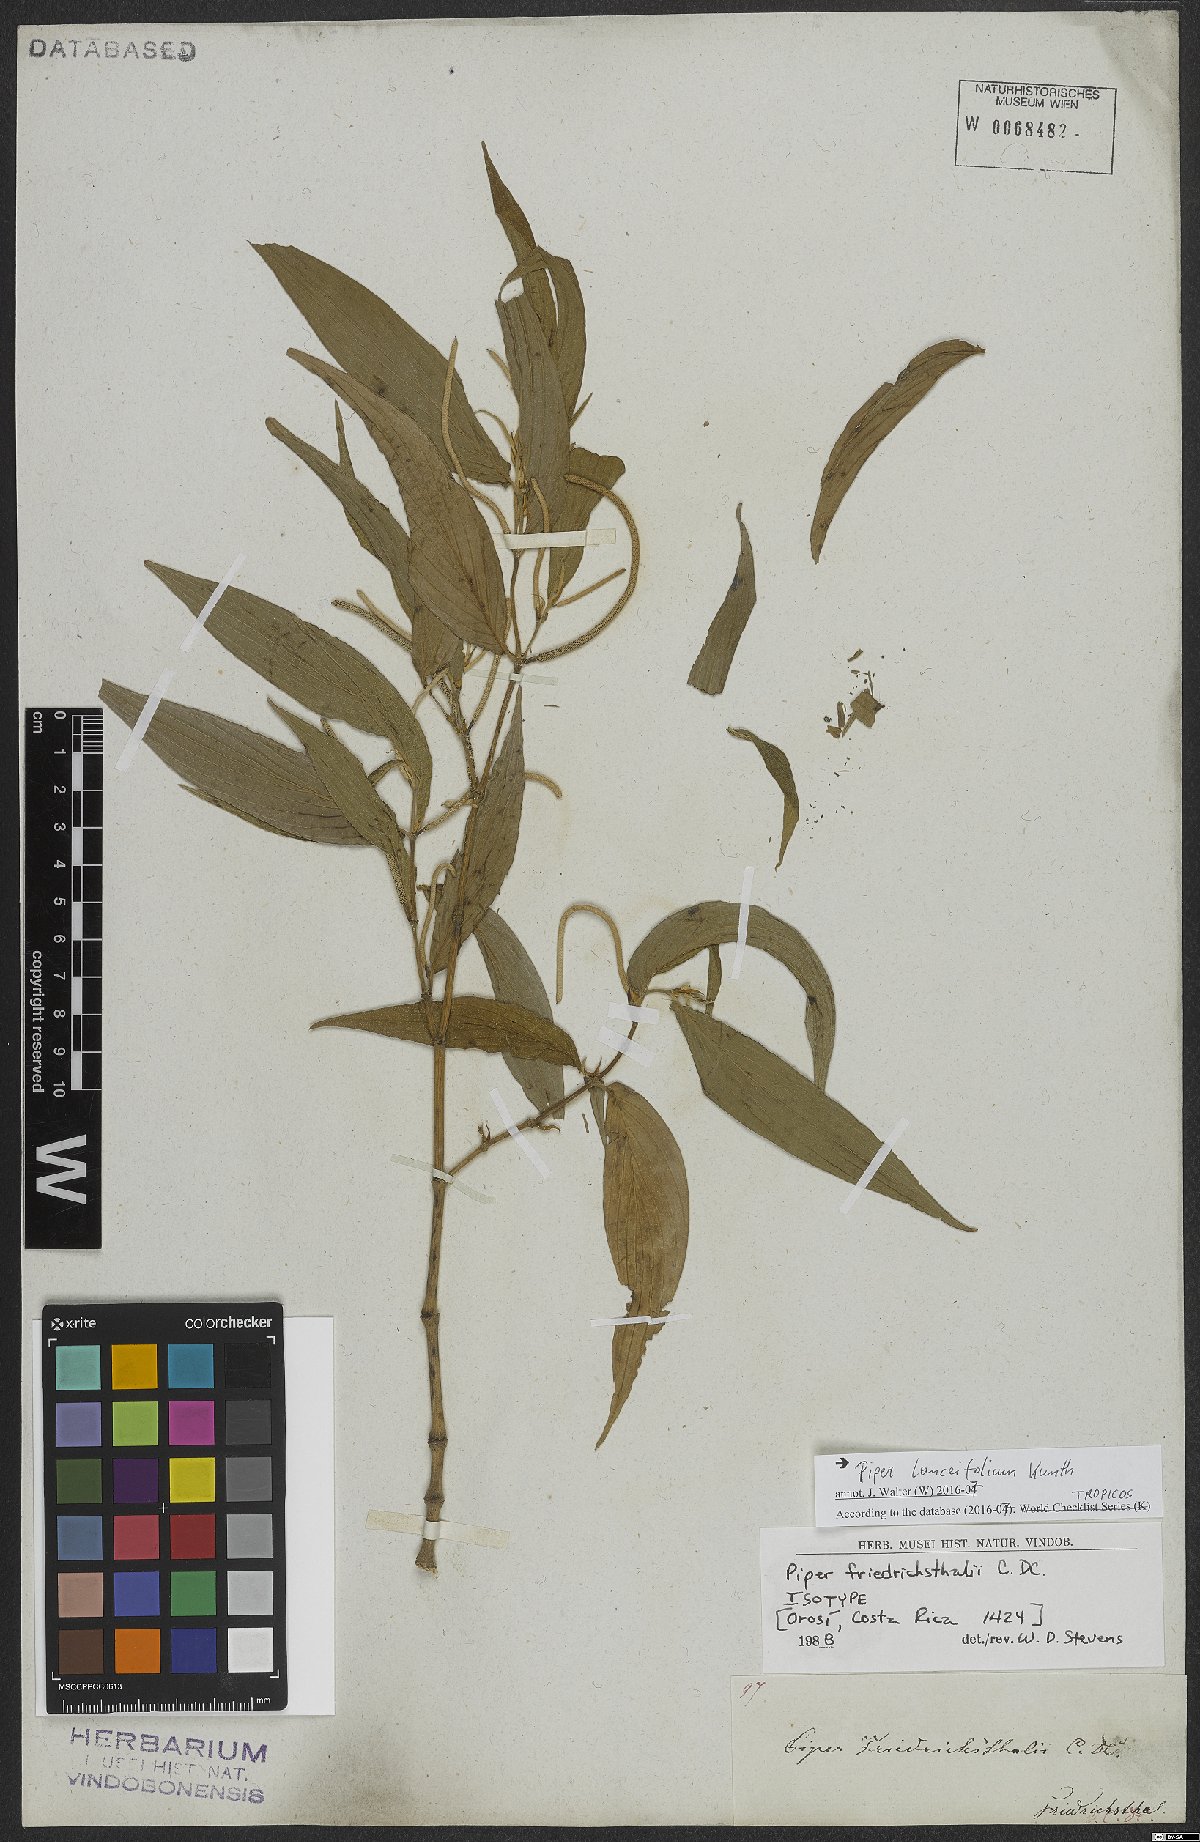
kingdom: Plantae
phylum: Tracheophyta
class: Magnoliopsida
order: Piperales
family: Piperaceae
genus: Piper
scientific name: Piper lanceifolium
